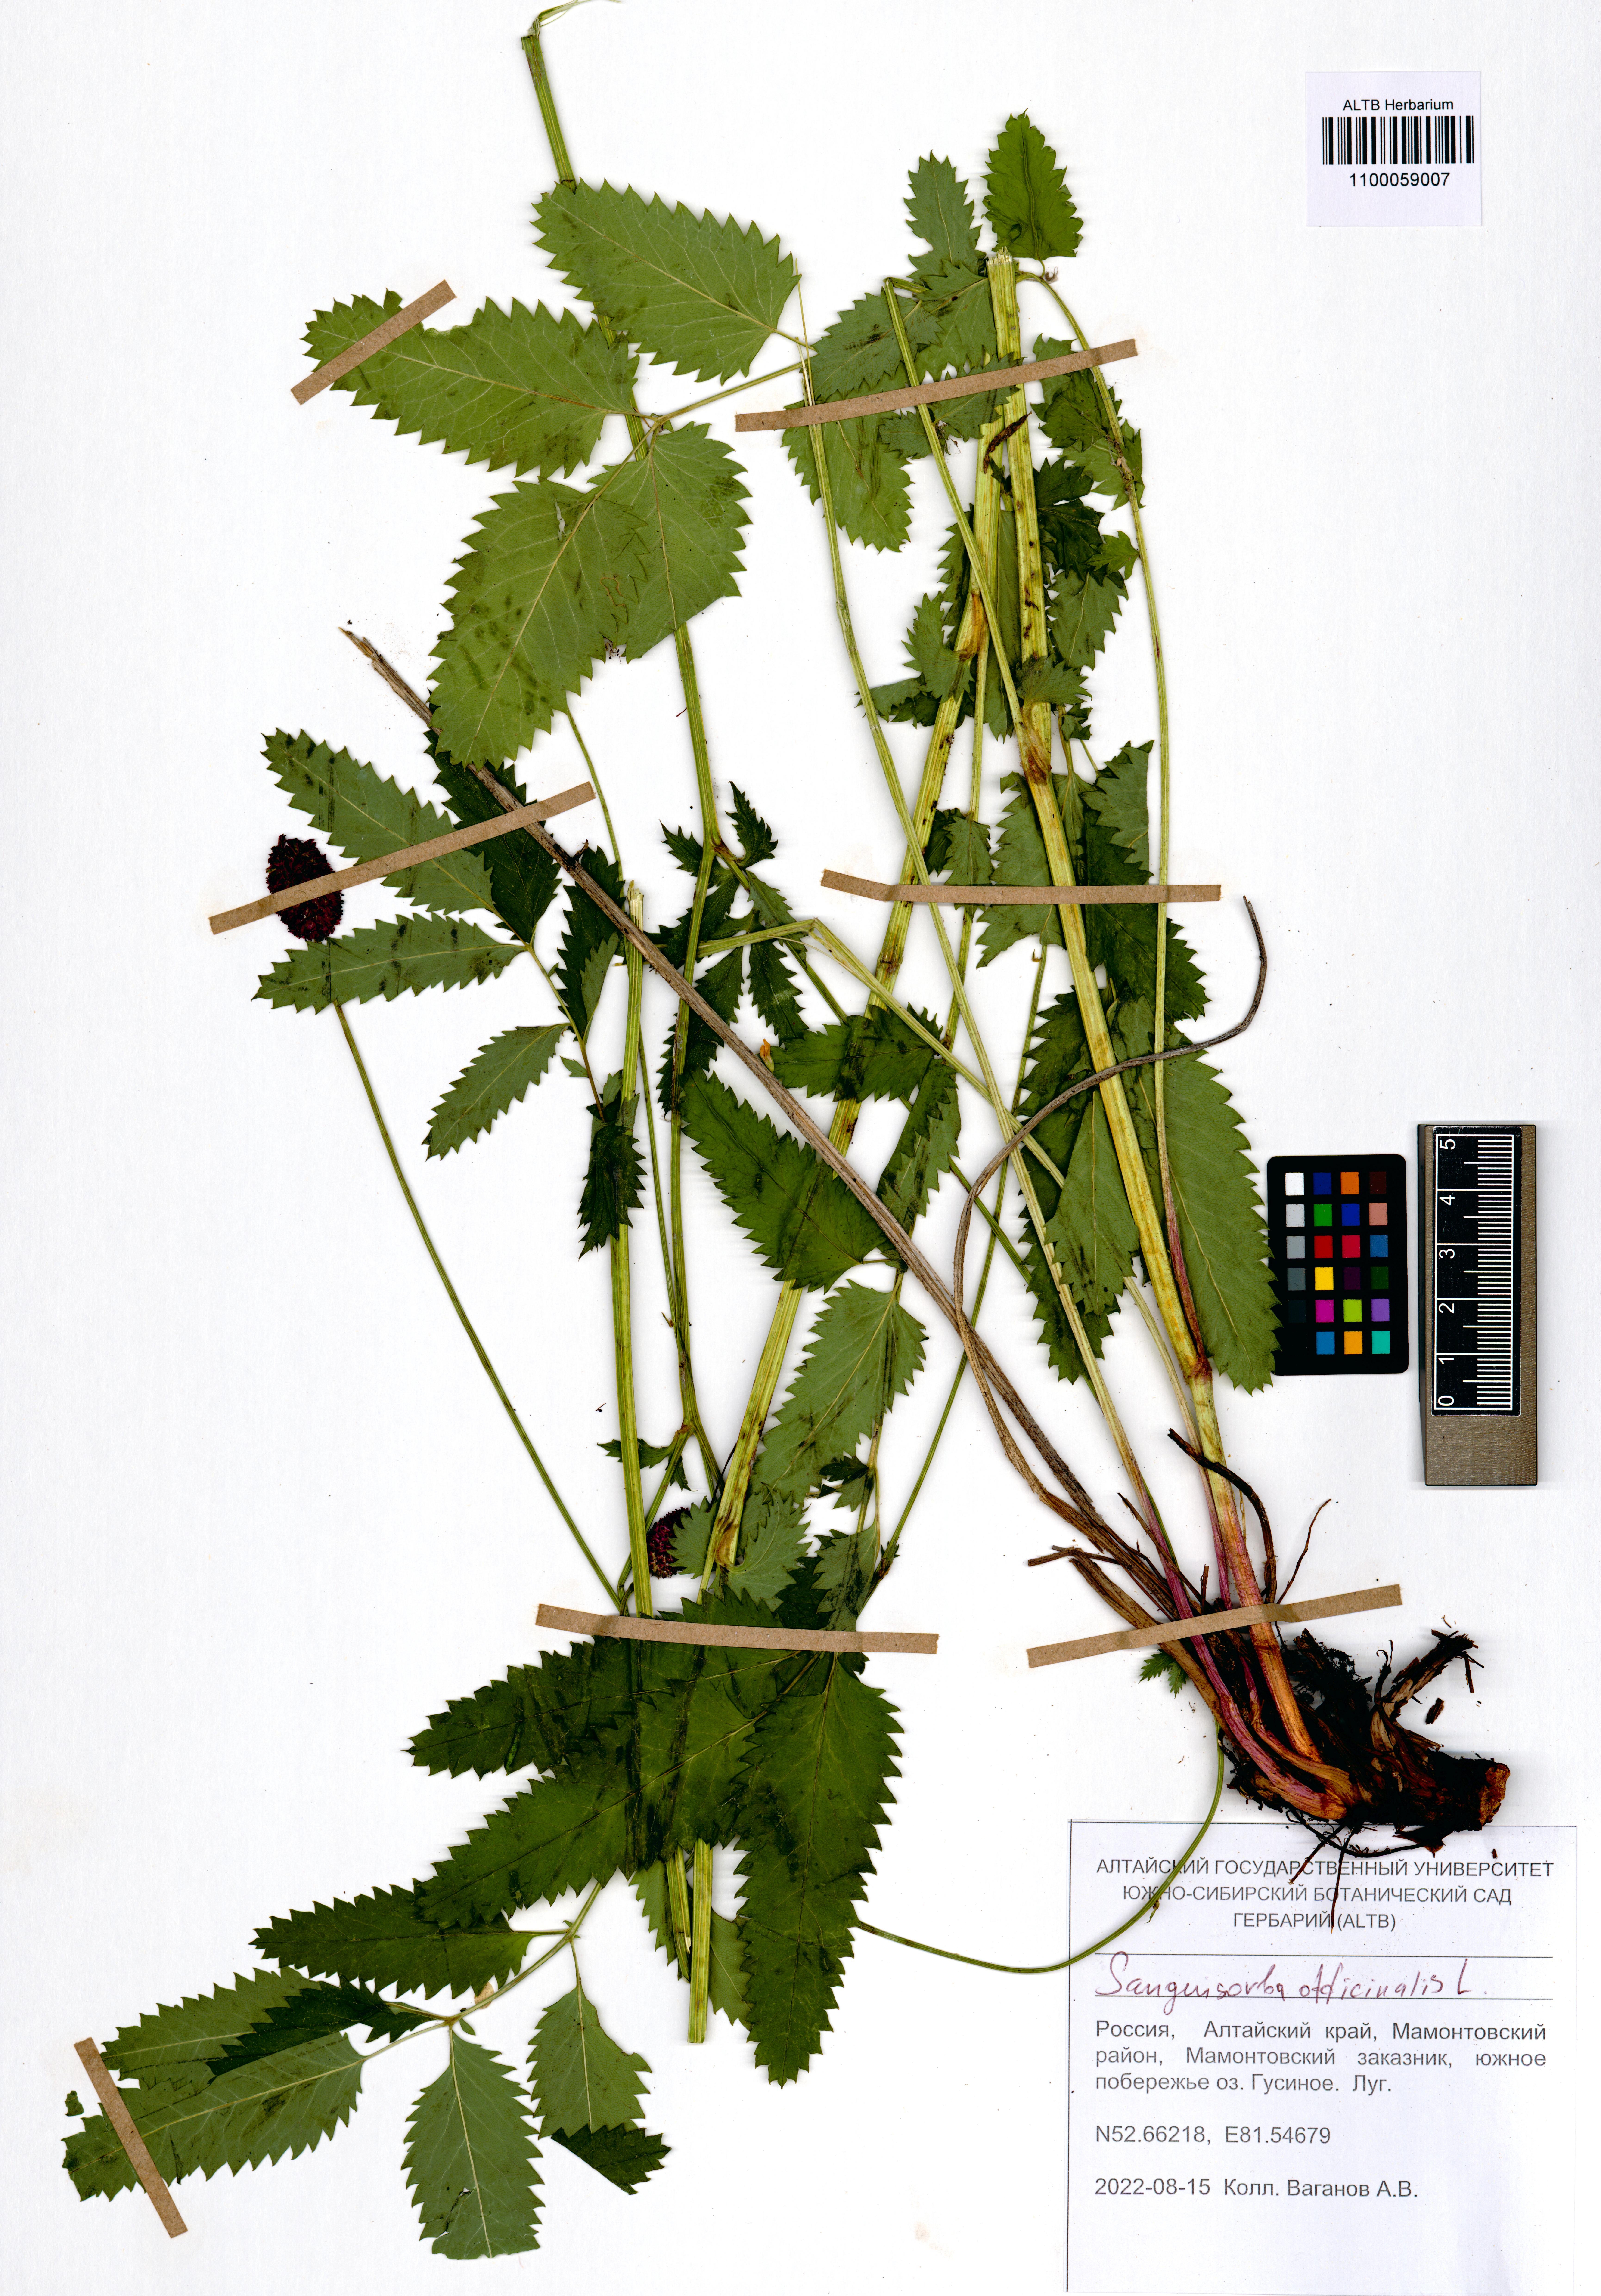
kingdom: Plantae
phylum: Tracheophyta
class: Magnoliopsida
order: Rosales
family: Rosaceae
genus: Sanguisorba
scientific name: Sanguisorba officinalis
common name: Great burnet
